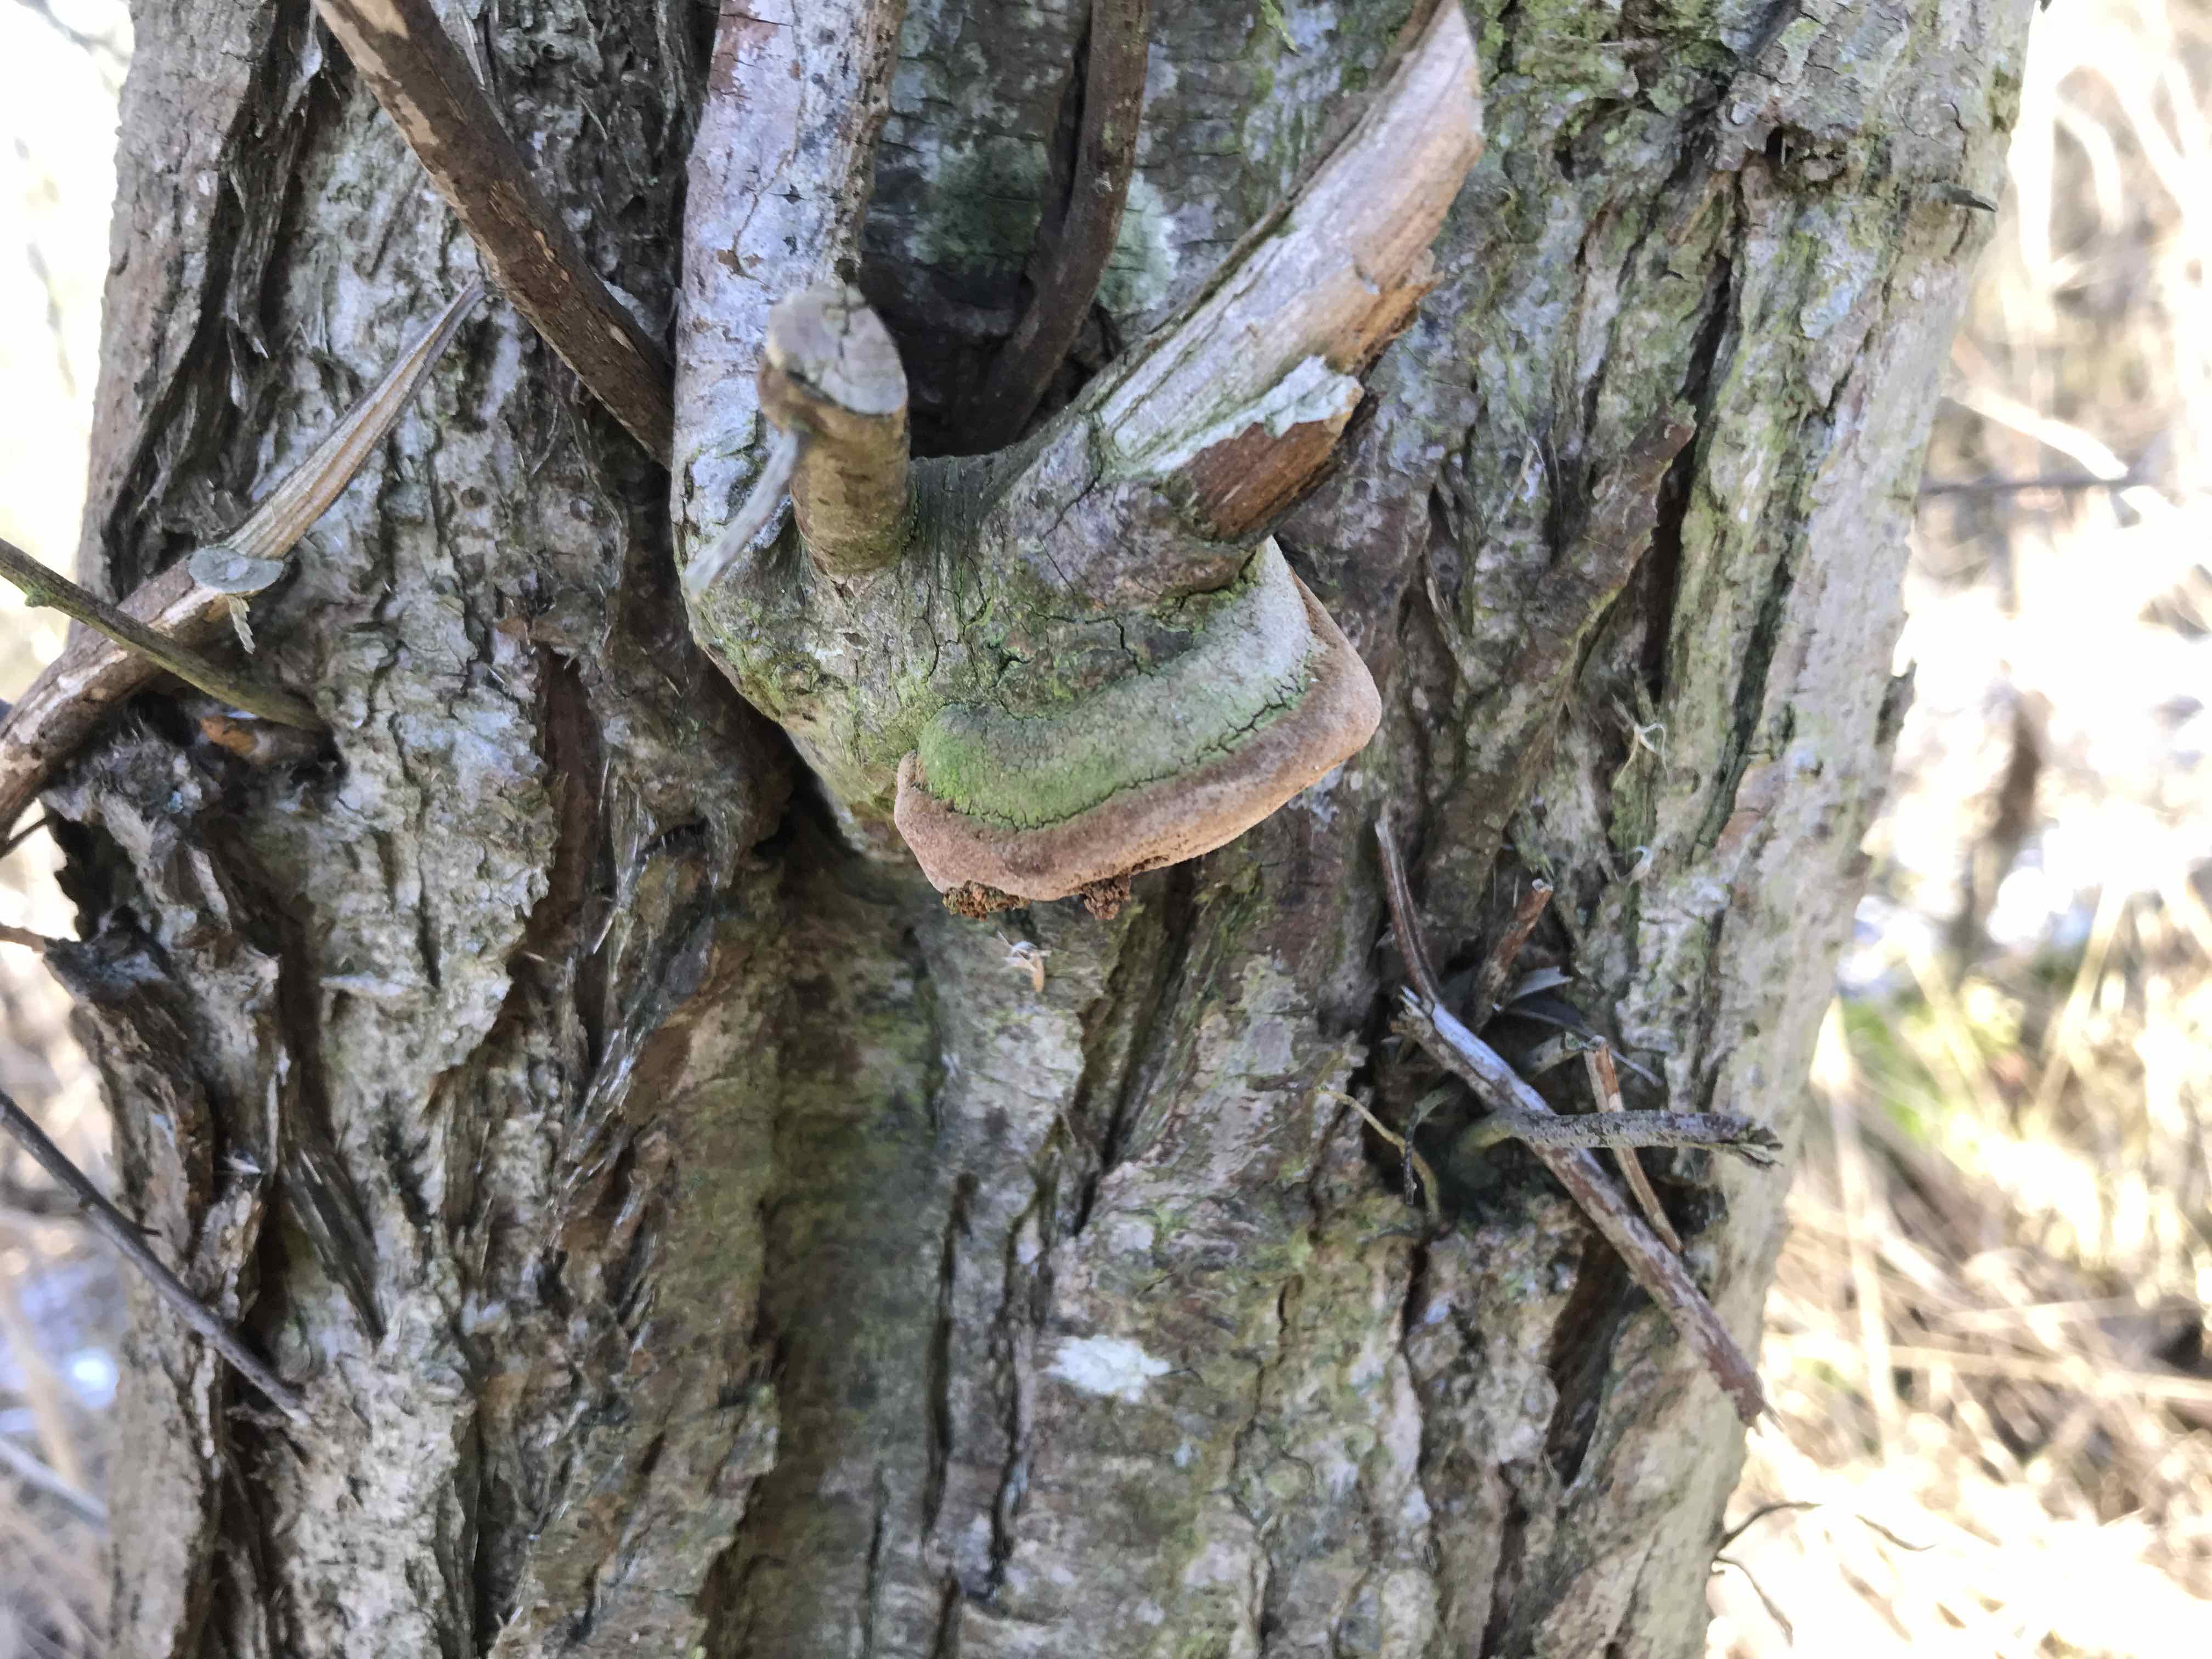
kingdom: Fungi
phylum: Basidiomycota
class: Agaricomycetes
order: Hymenochaetales
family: Hymenochaetaceae
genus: Fomitiporia
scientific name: Fomitiporia hippophaeicola
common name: havtorn-ildporesvamp
